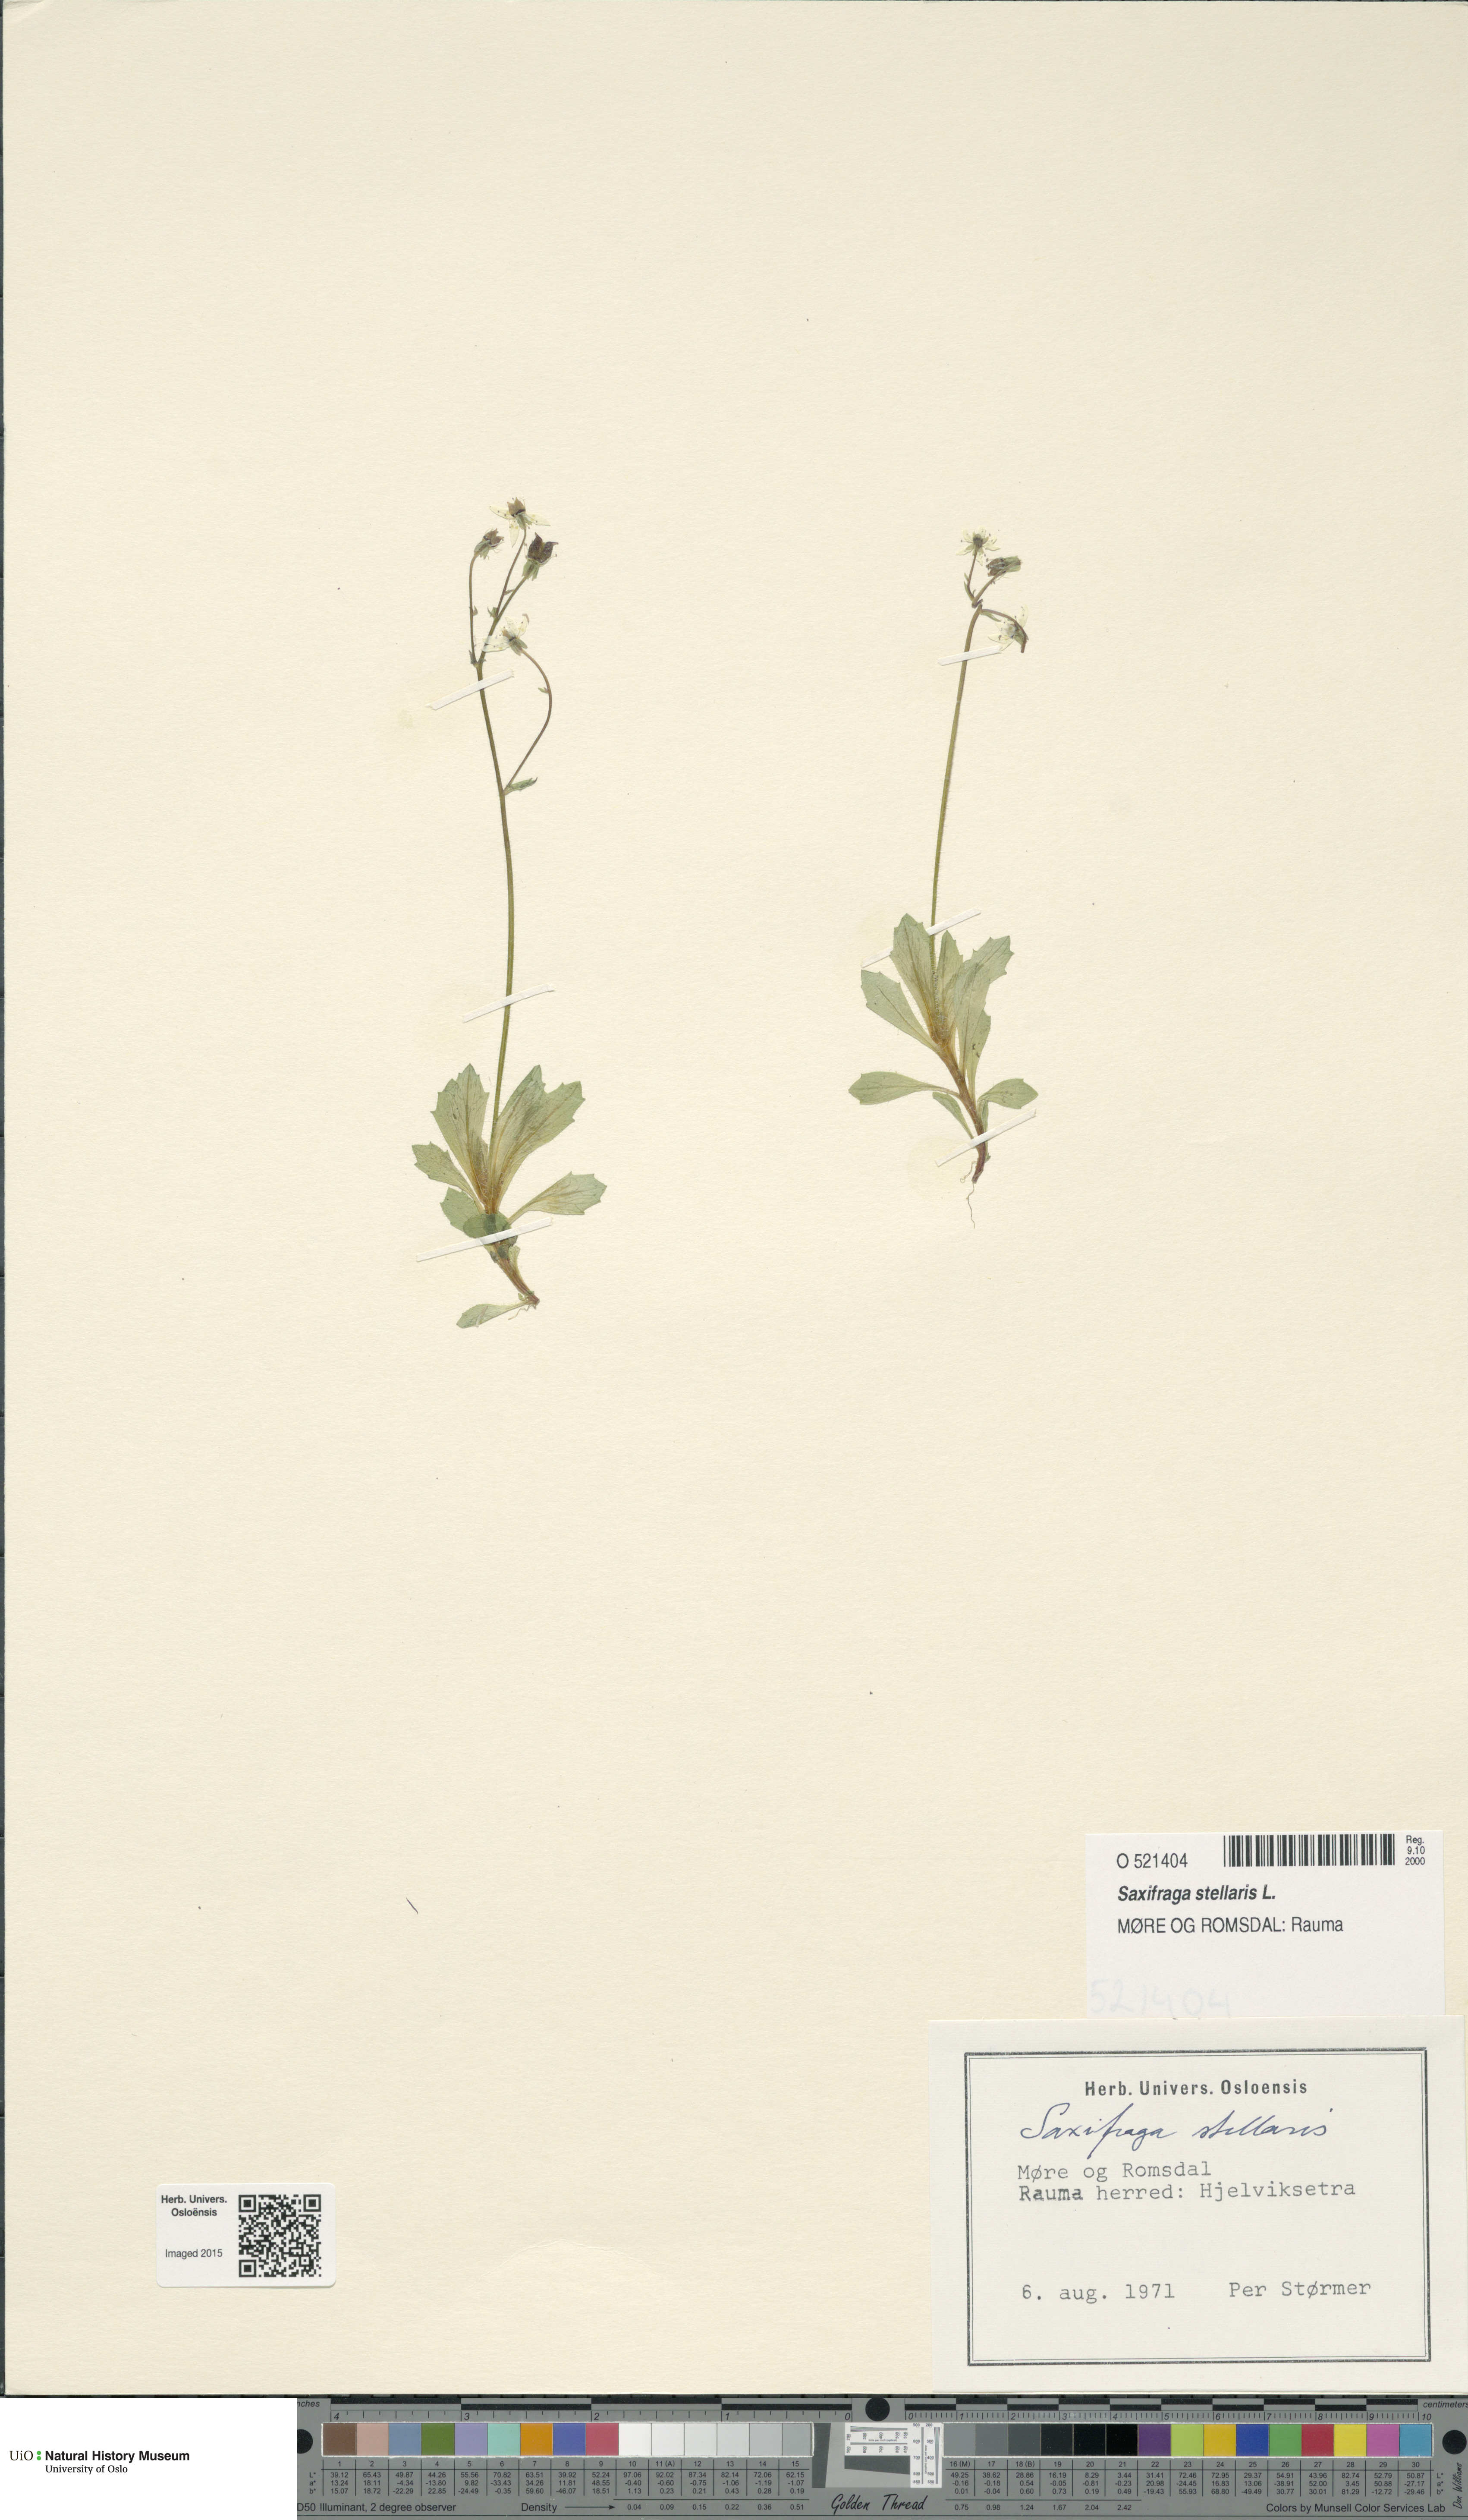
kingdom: Plantae
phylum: Tracheophyta
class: Magnoliopsida
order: Saxifragales
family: Saxifragaceae
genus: Micranthes
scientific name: Micranthes stellaris
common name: Starry saxifrage
